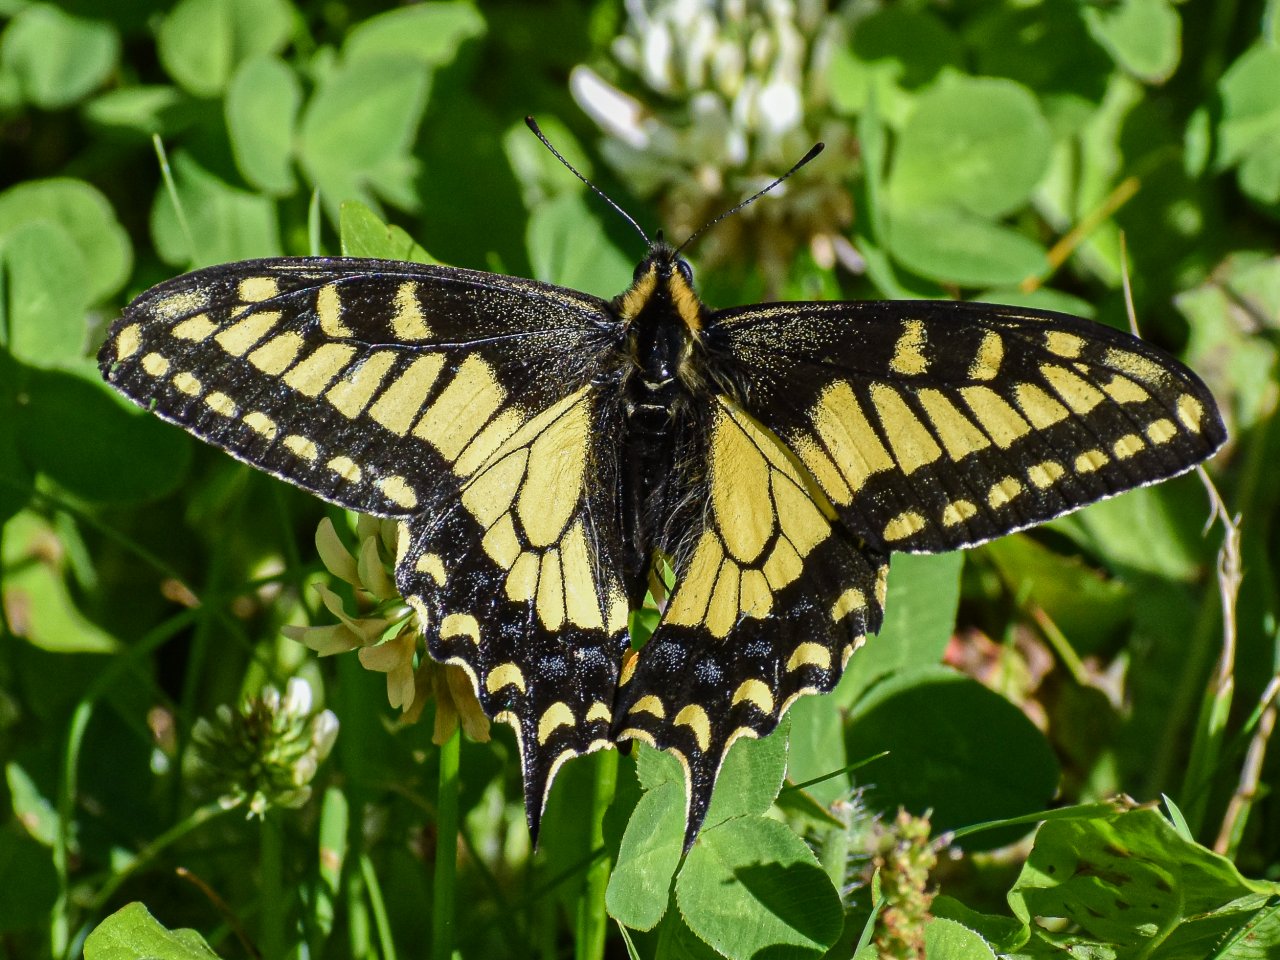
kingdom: Animalia
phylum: Arthropoda
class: Insecta
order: Lepidoptera
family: Papilionidae
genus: Papilio
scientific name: Papilio zelicaon
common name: Anise Swallowtail
